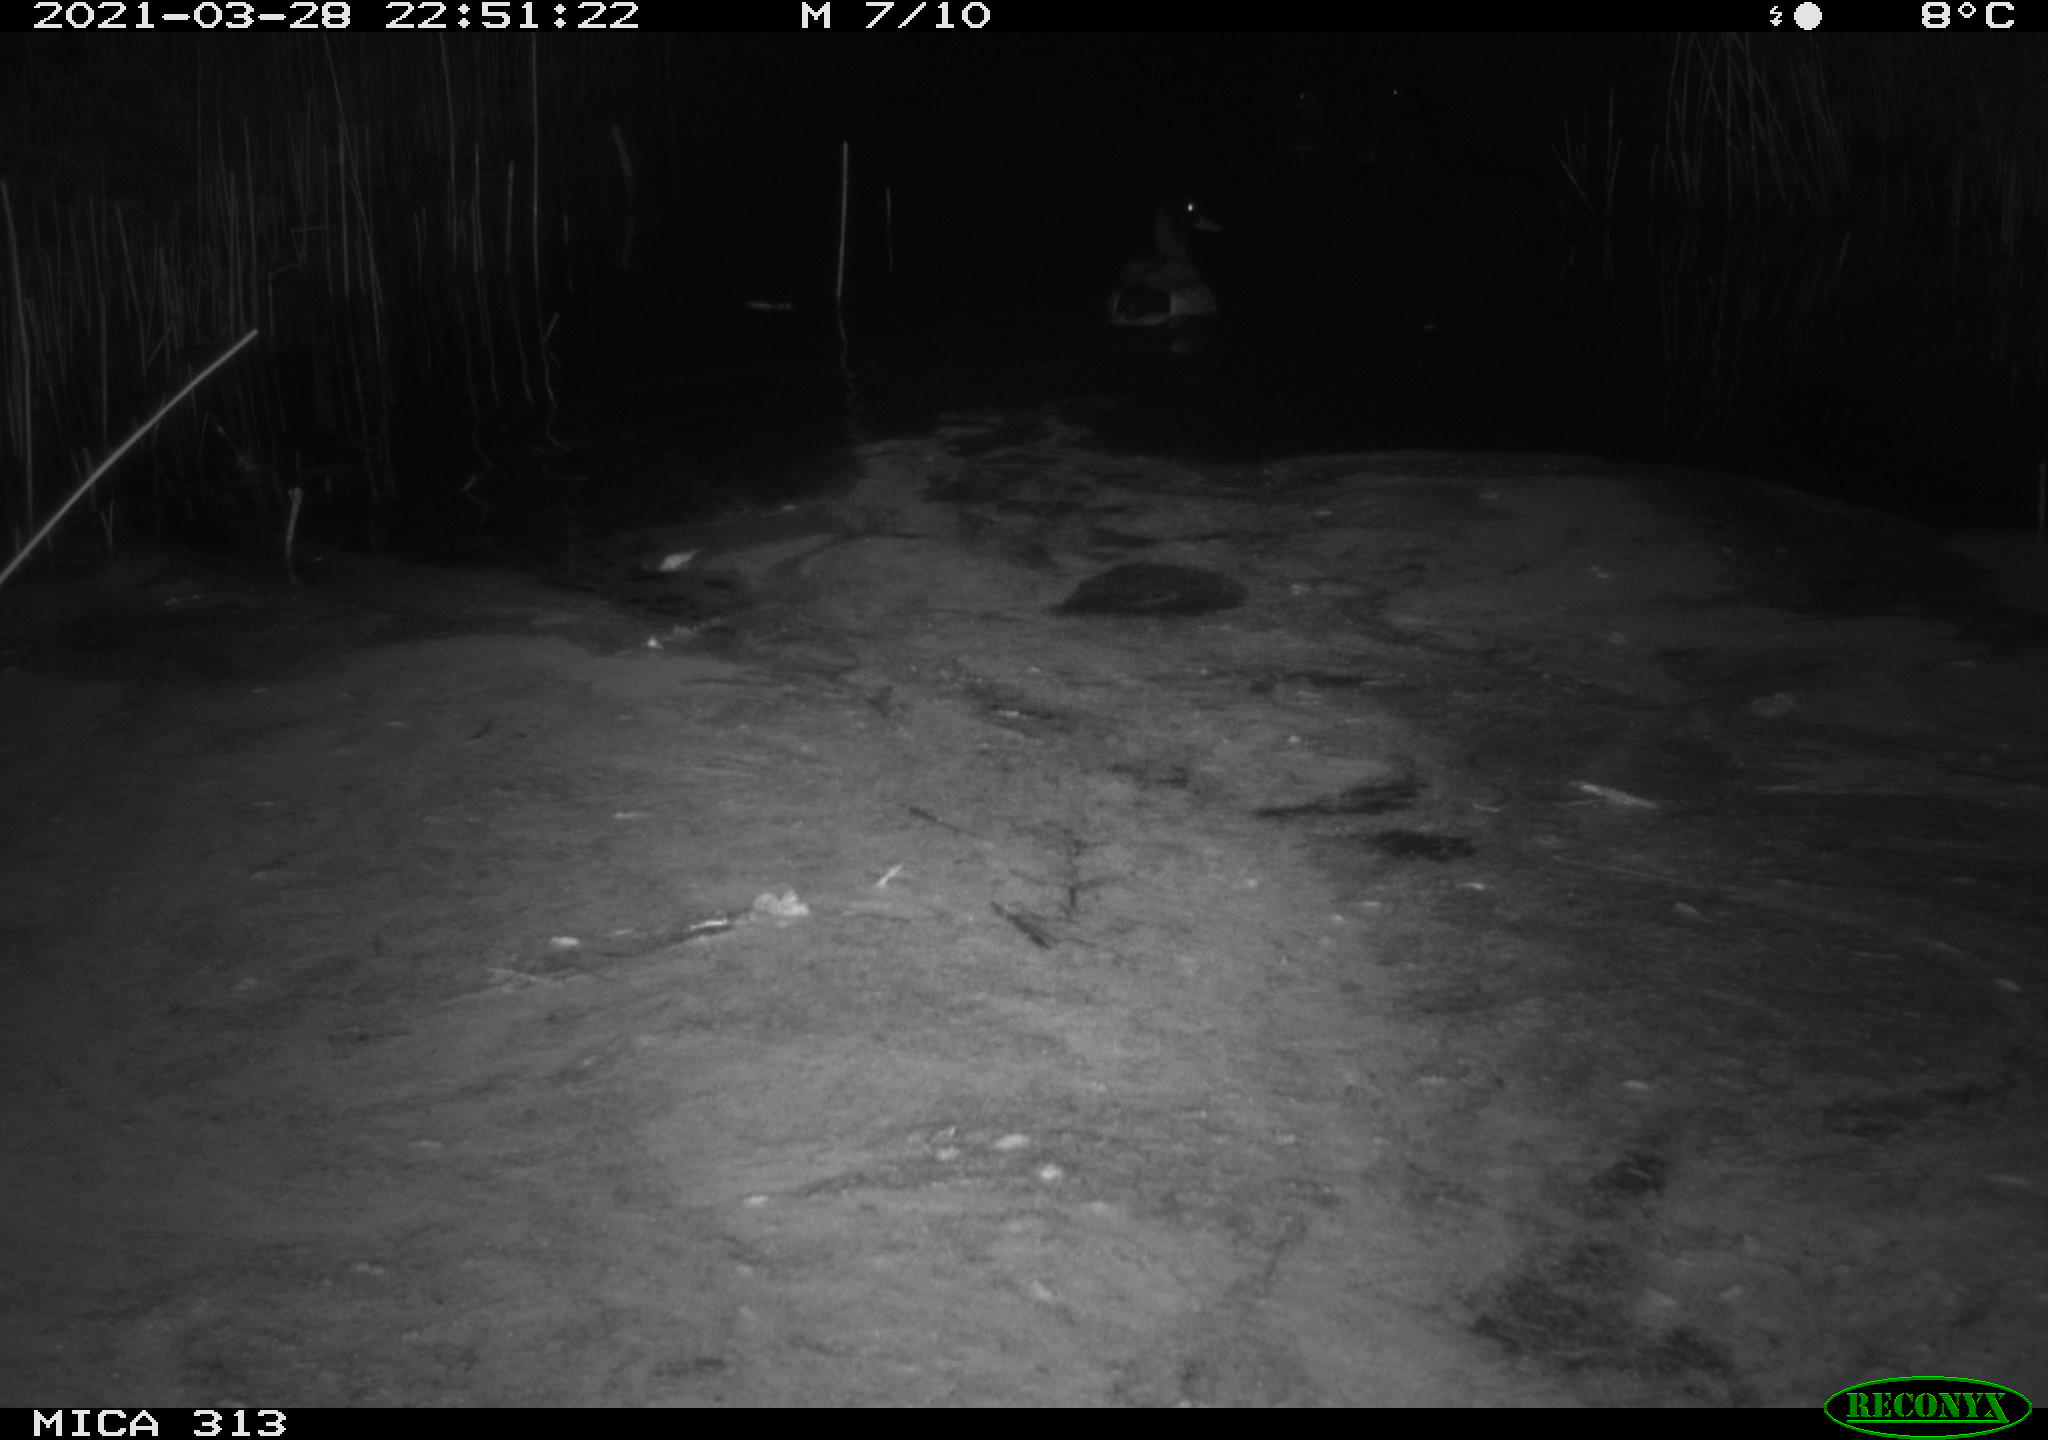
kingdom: Animalia
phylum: Chordata
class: Aves
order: Anseriformes
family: Anatidae
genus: Anas
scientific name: Anas platyrhynchos
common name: Mallard
